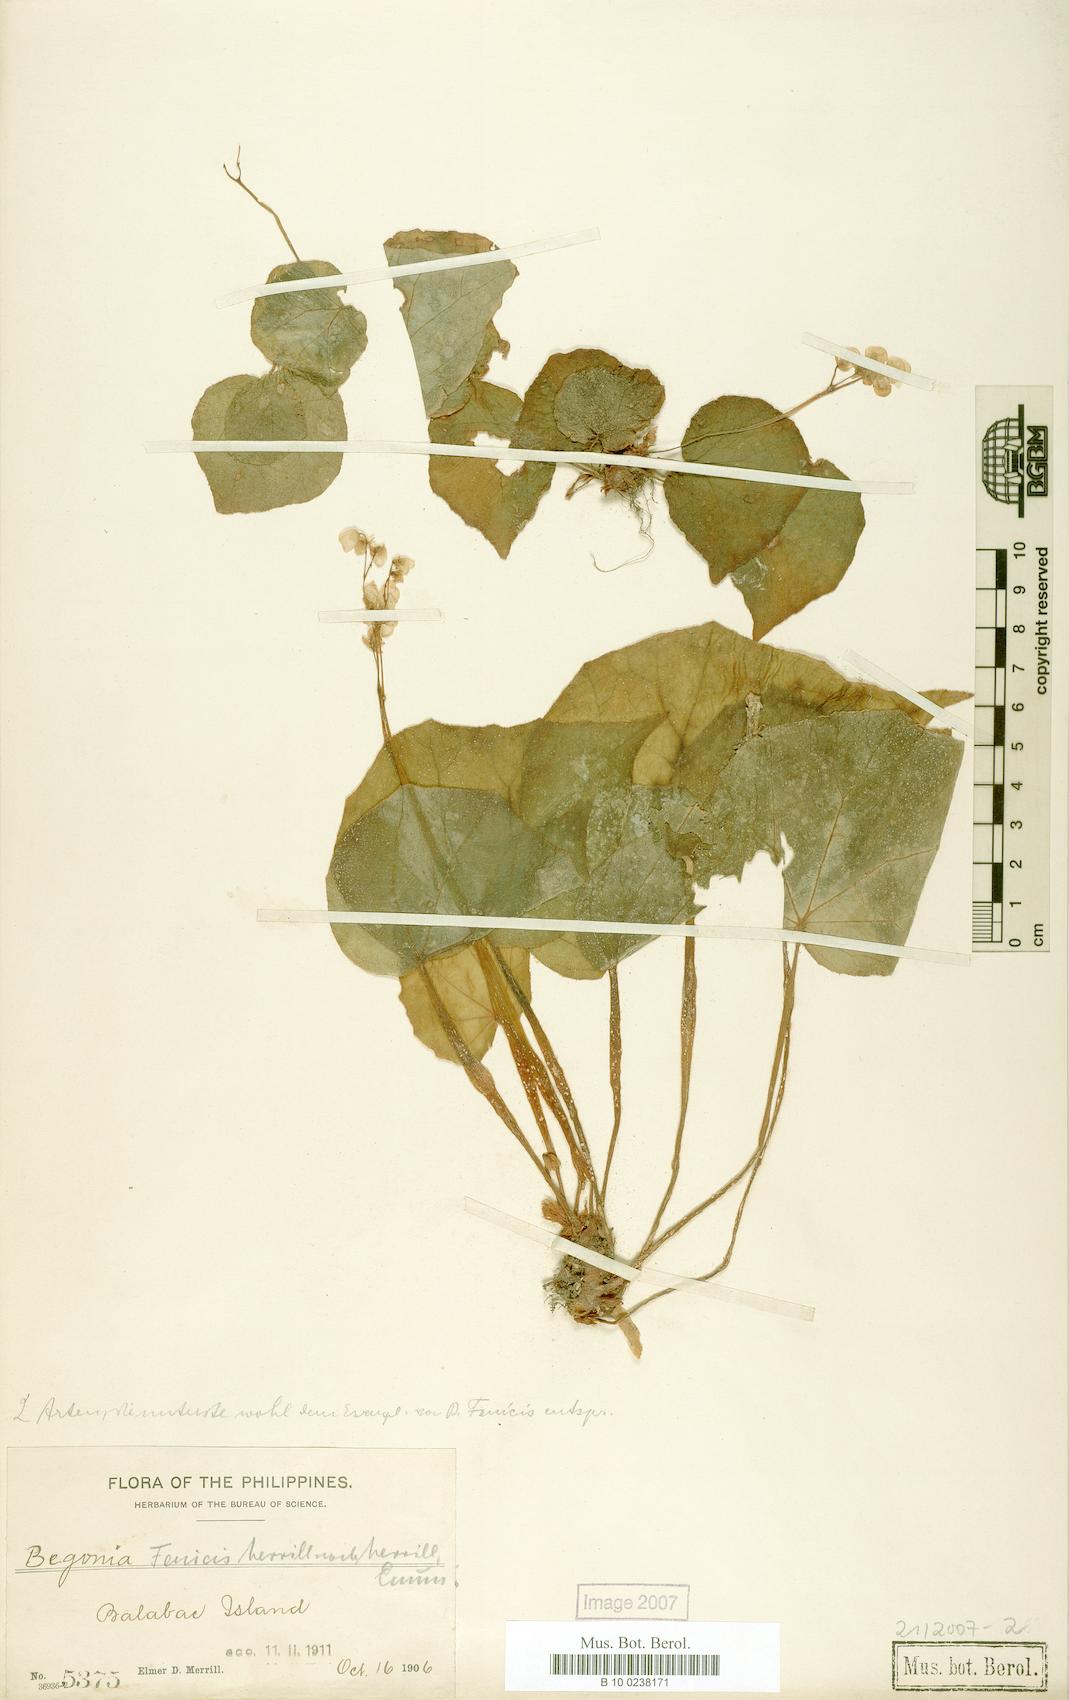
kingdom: Plantae
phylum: Tracheophyta
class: Magnoliopsida
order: Cucurbitales
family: Begoniaceae
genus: Begonia
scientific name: Begonia fenicis
